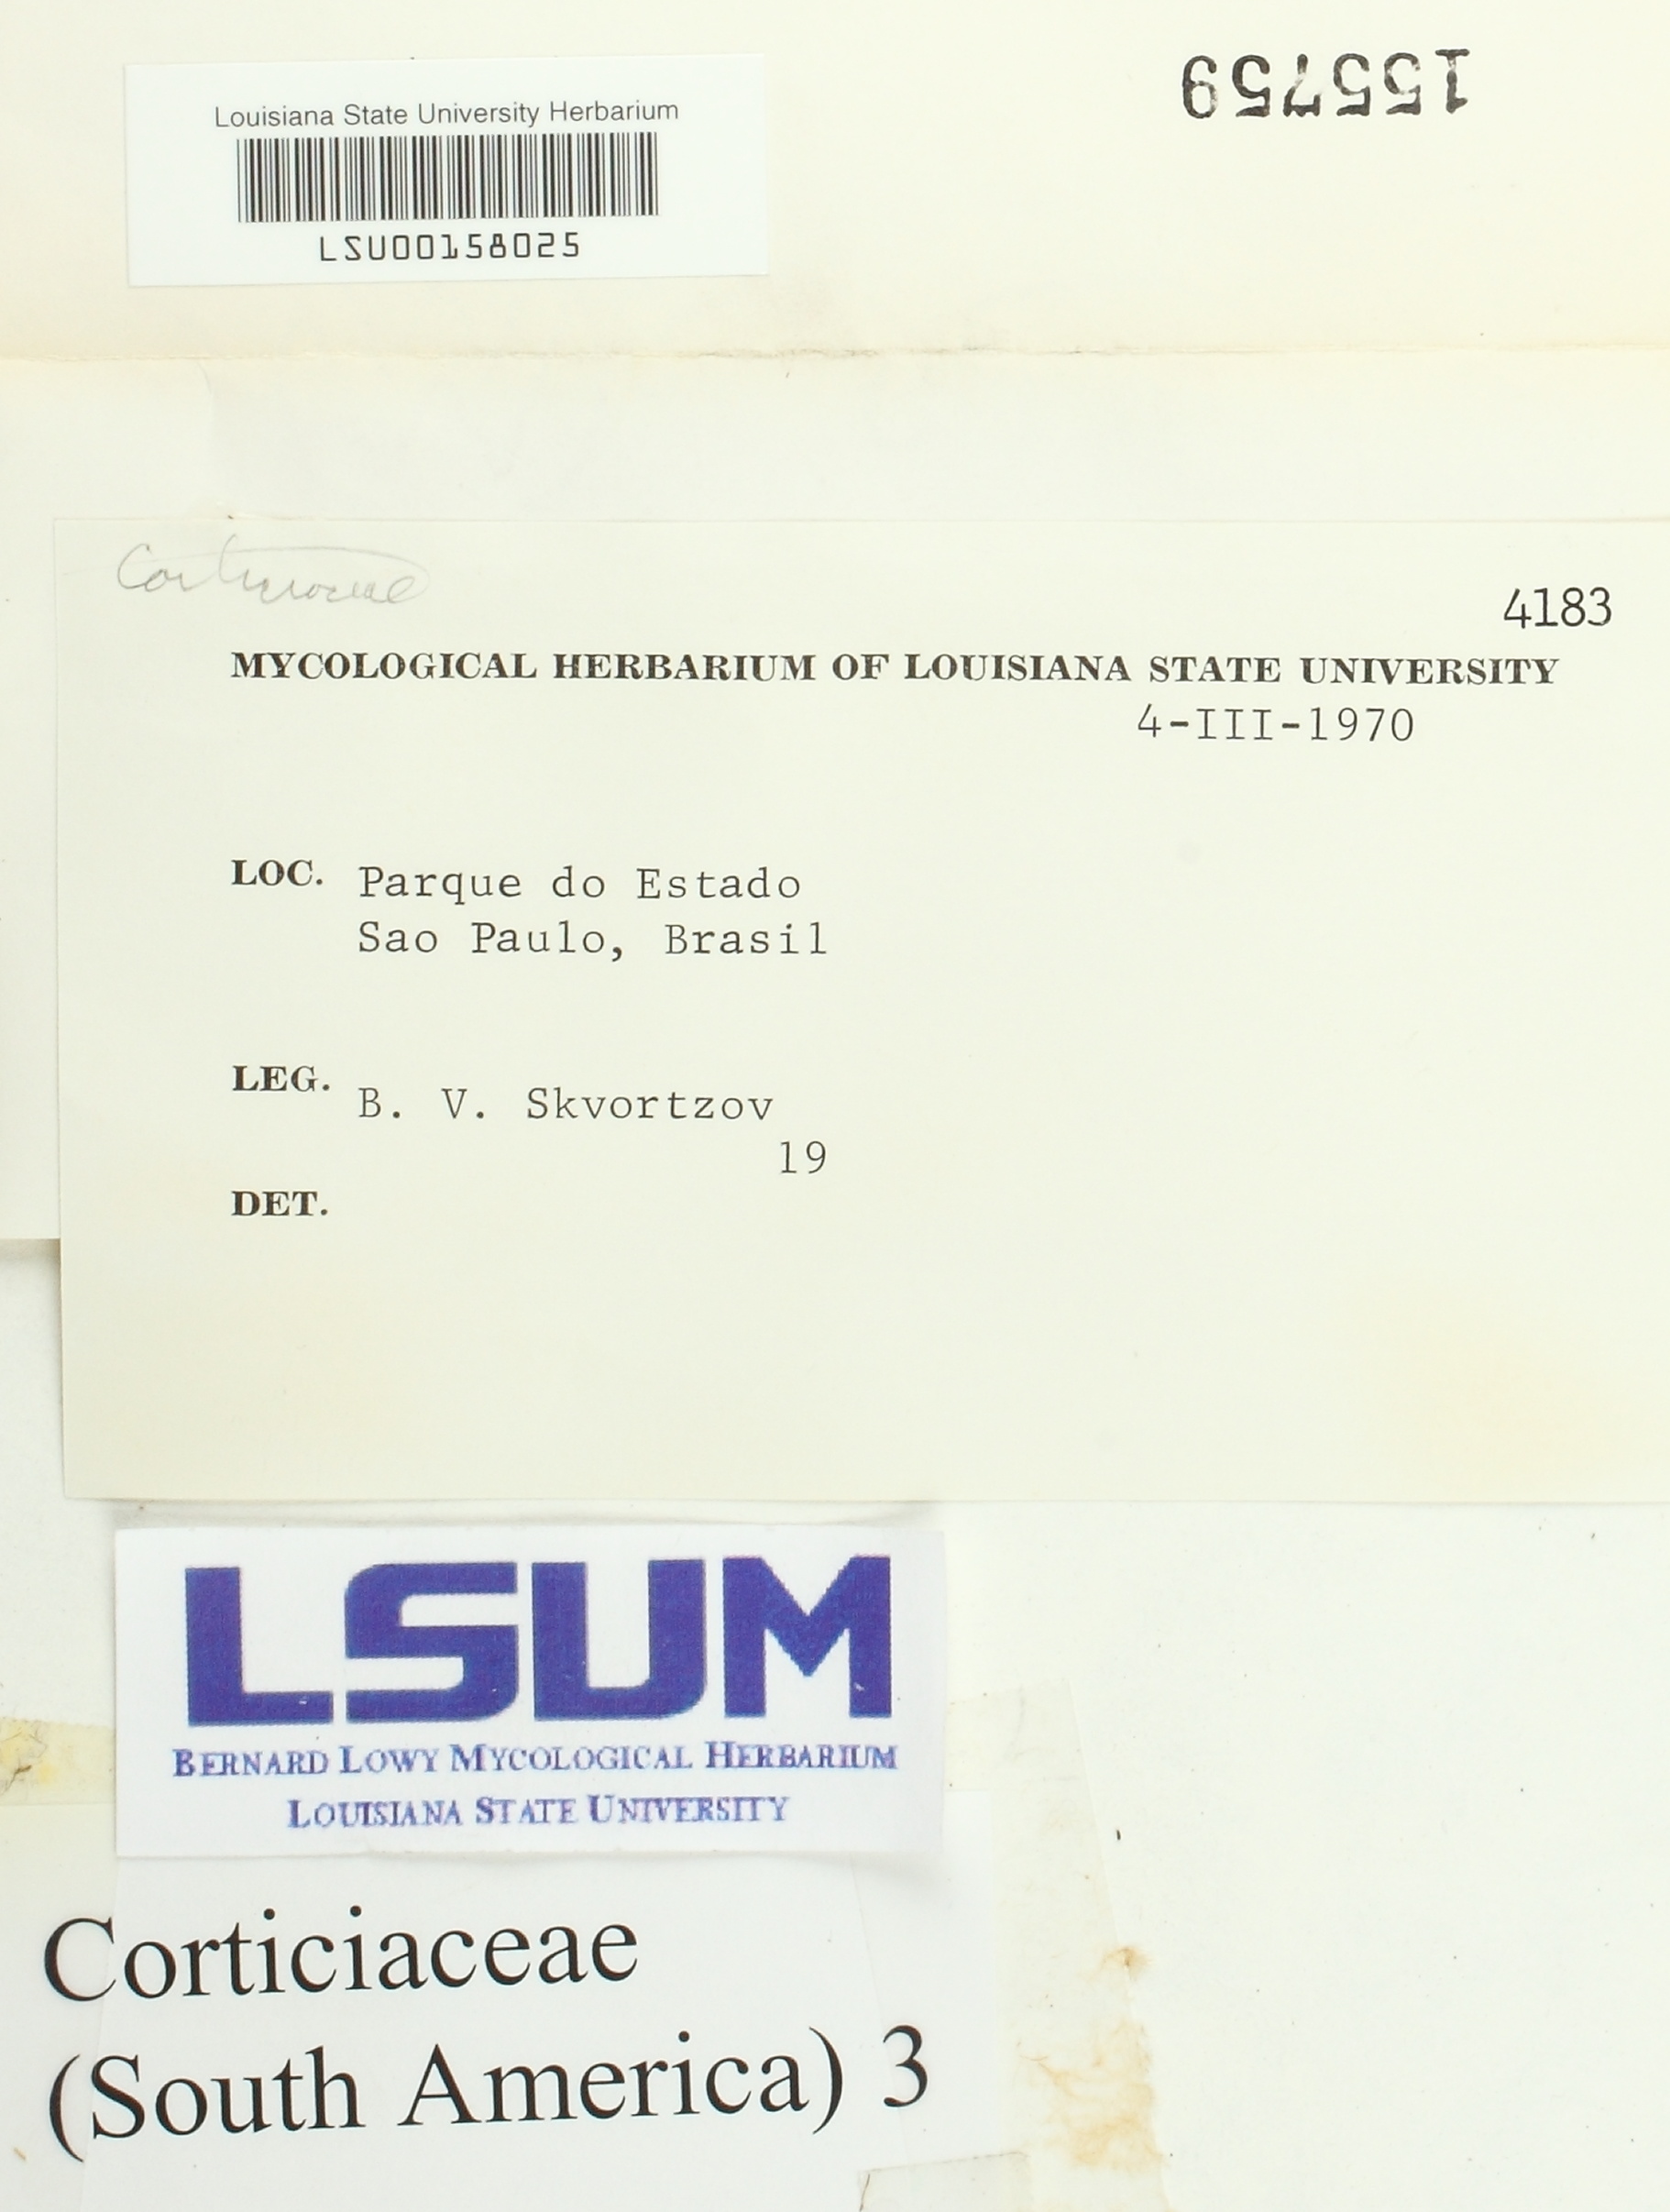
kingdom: Fungi
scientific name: Fungi
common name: Fungi
